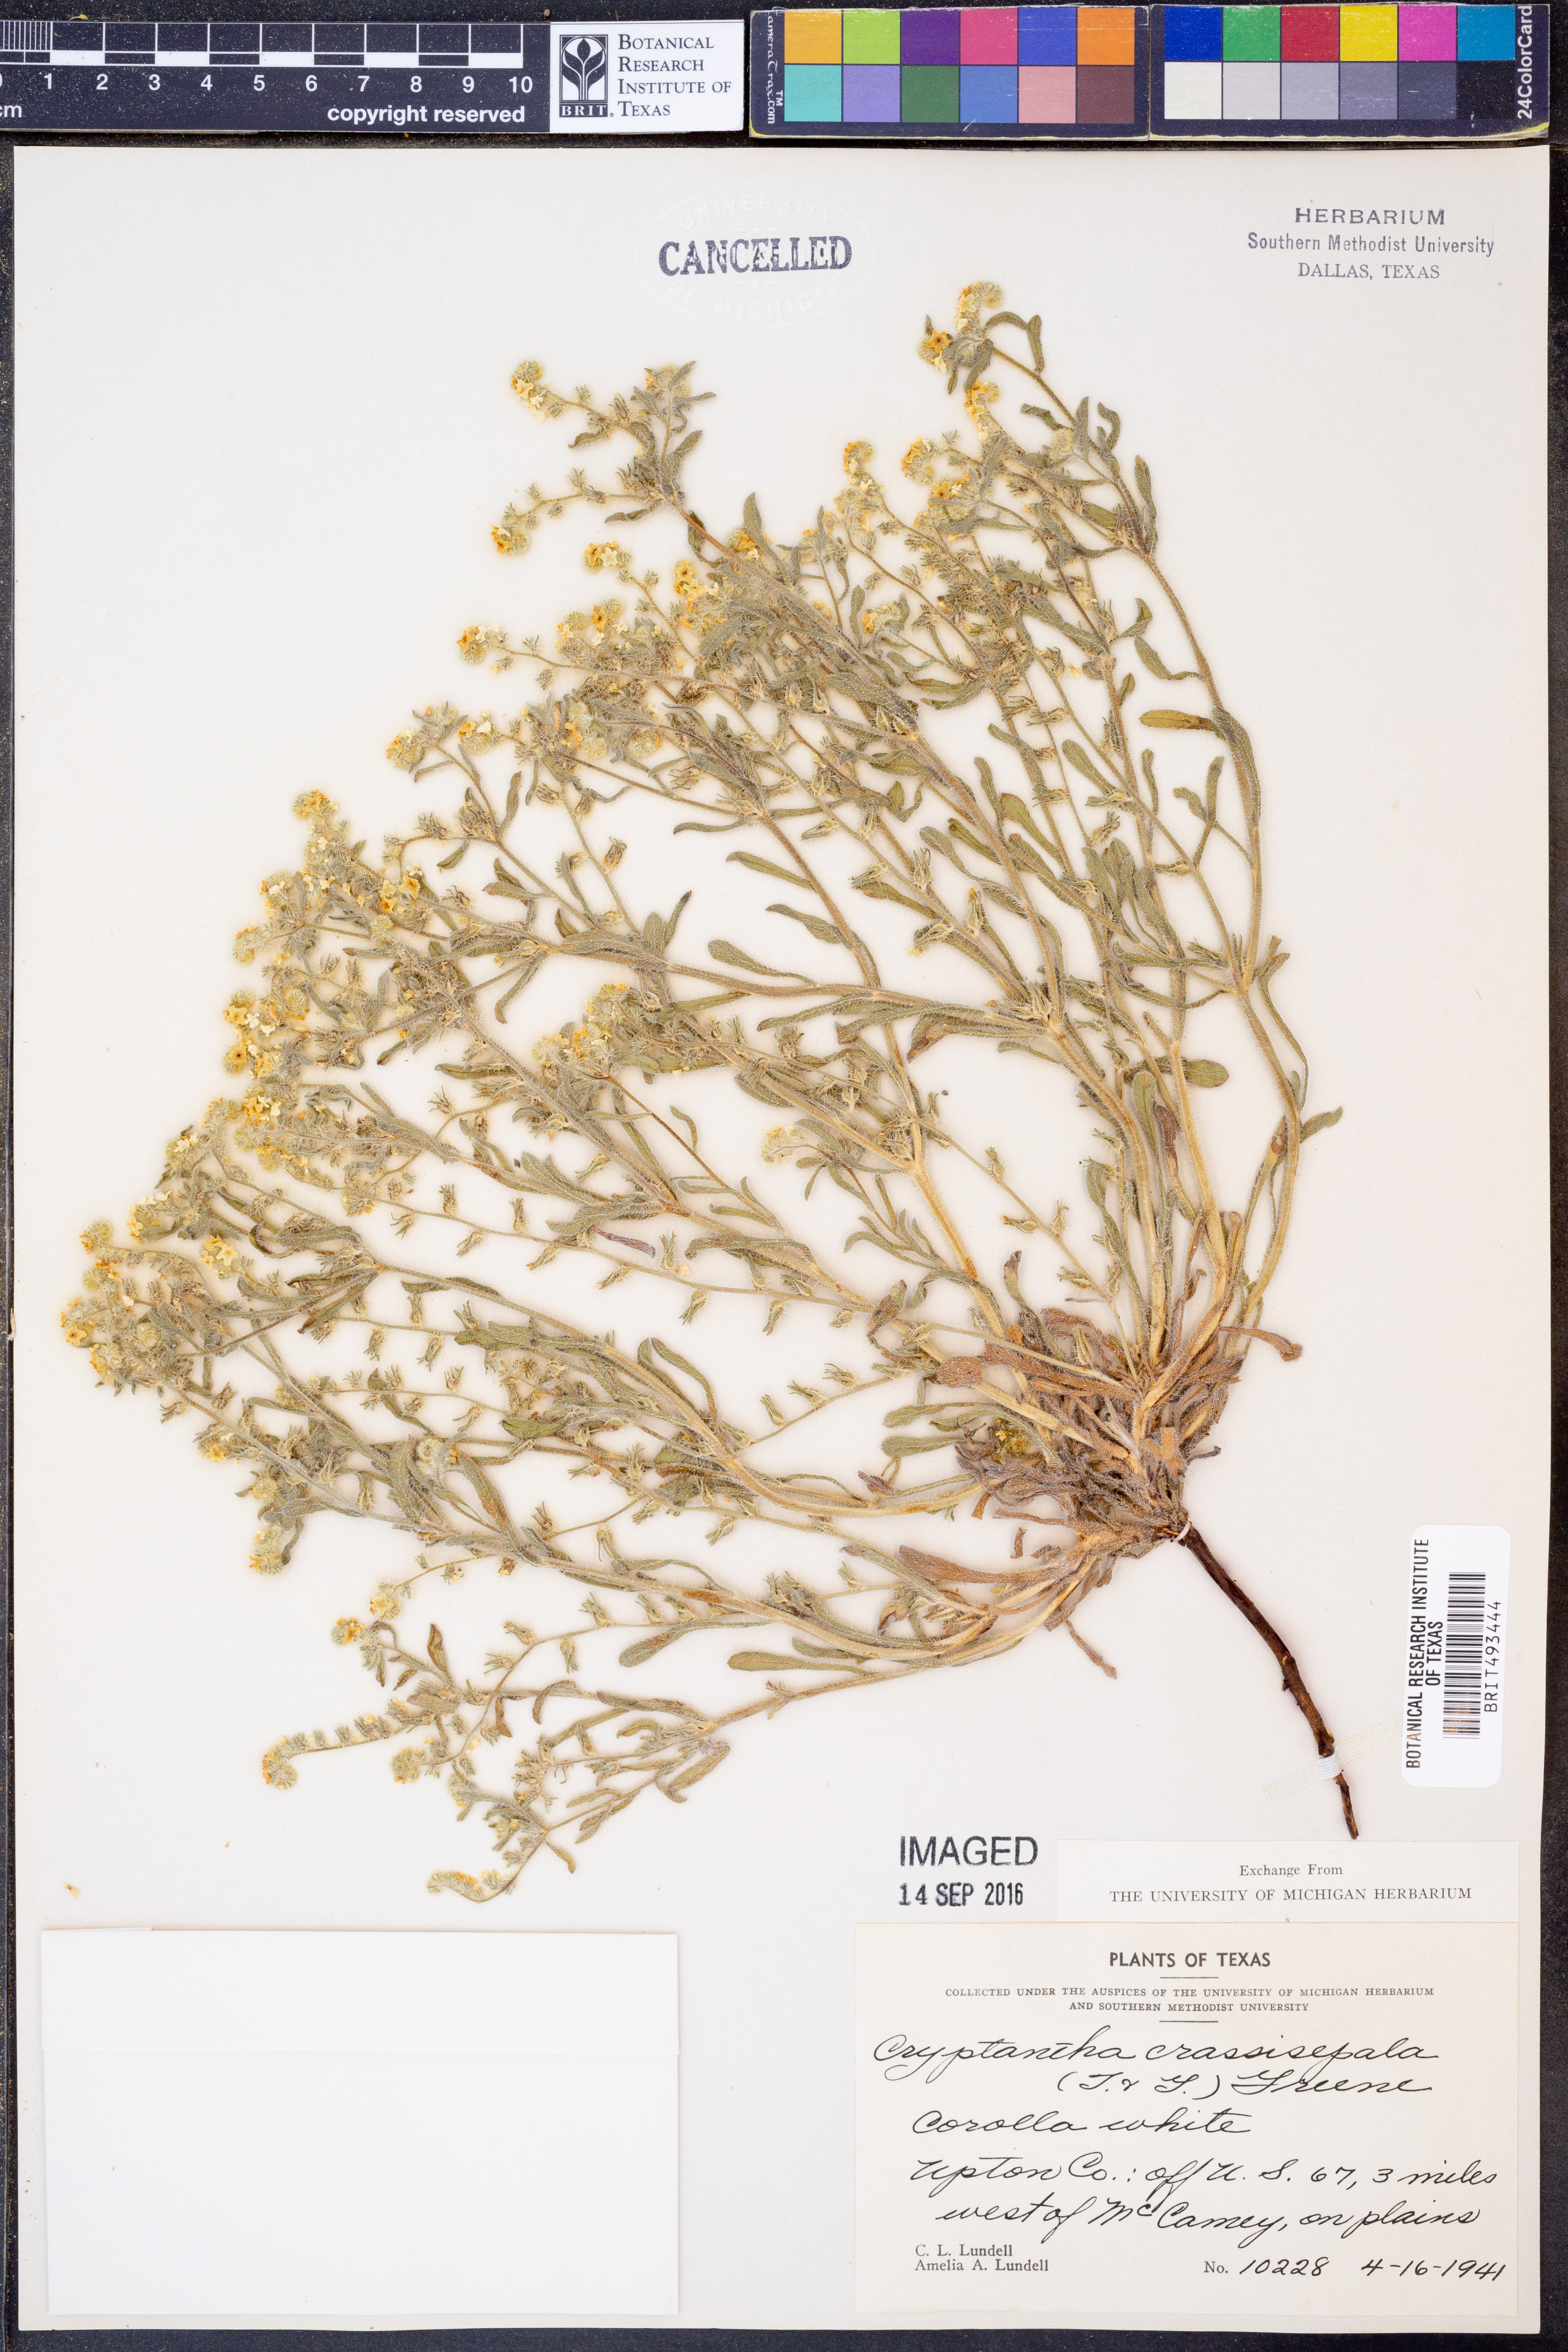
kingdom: Plantae
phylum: Tracheophyta
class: Magnoliopsida
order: Boraginales
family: Boraginaceae
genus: Cryptantha
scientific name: Cryptantha crassisepala
